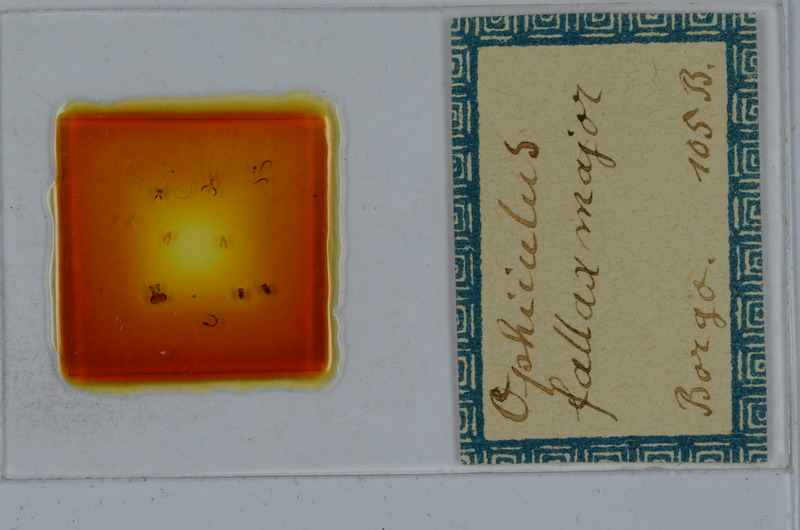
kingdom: Animalia
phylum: Arthropoda
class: Diplopoda
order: Julida
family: Julidae
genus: Ophyiulus
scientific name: Ophyiulus pilosus
